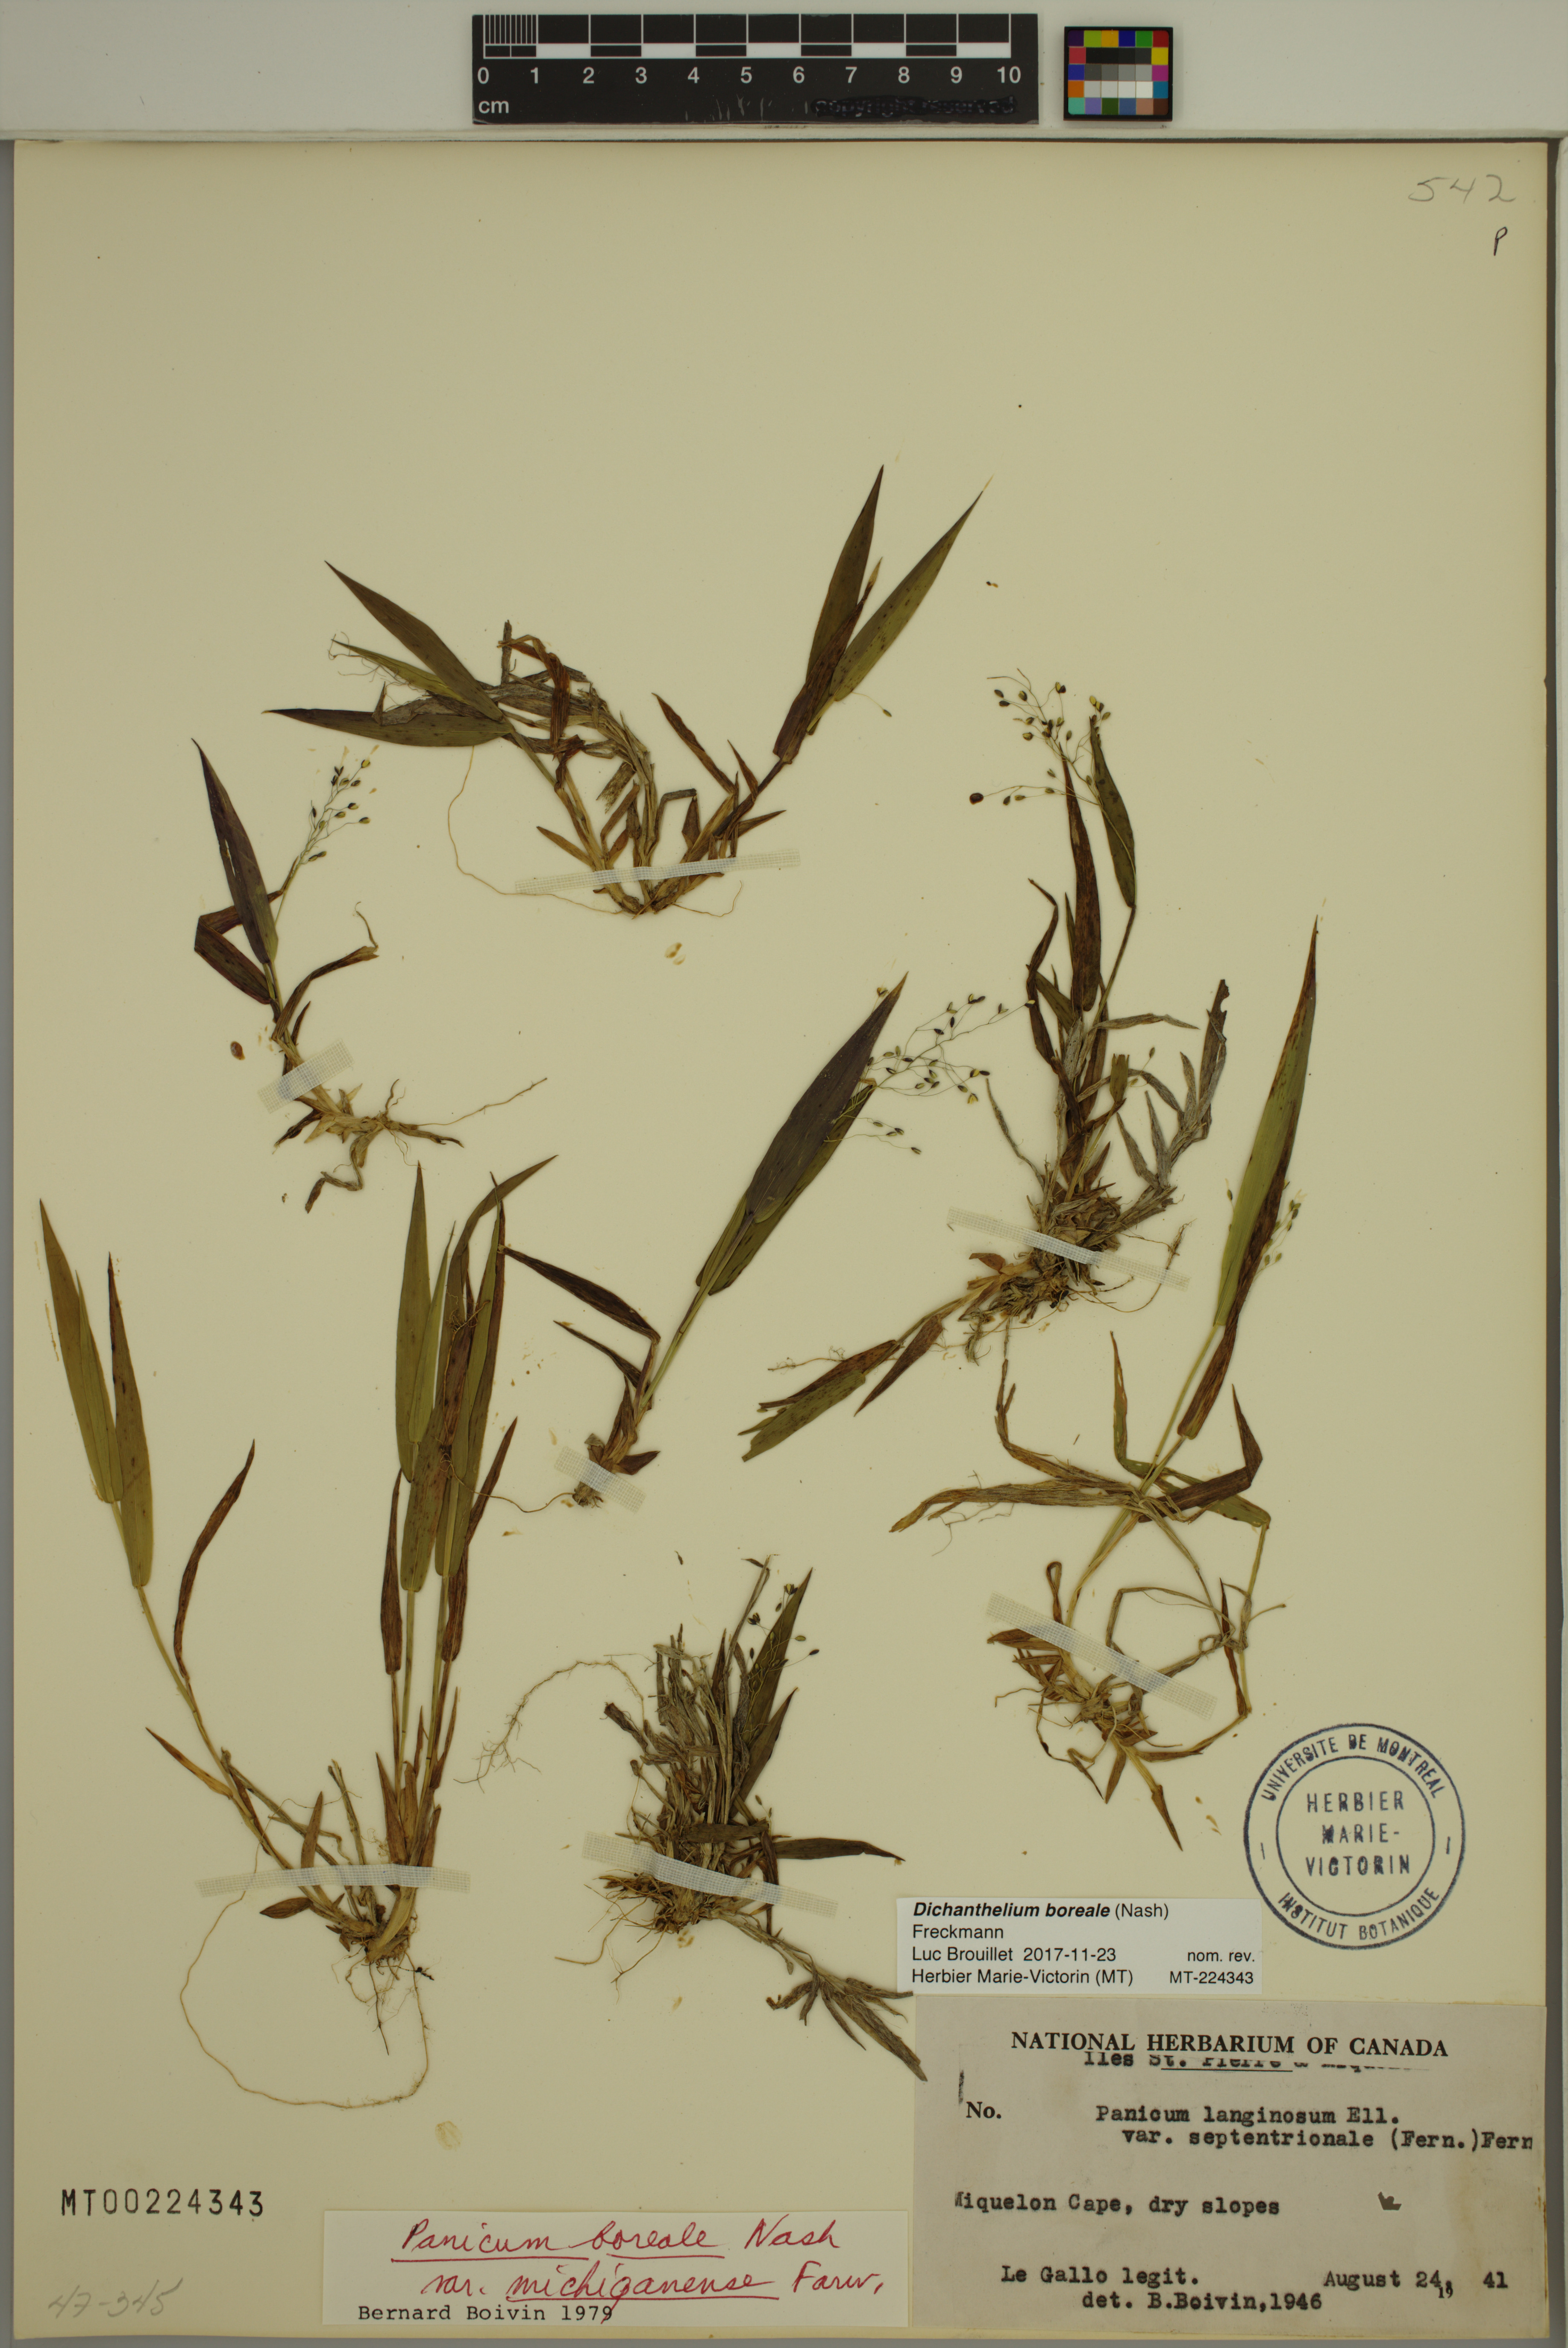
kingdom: Plantae
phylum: Tracheophyta
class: Liliopsida
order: Poales
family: Poaceae
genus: Dichanthelium
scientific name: Dichanthelium boreale
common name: Northern panicgrass
